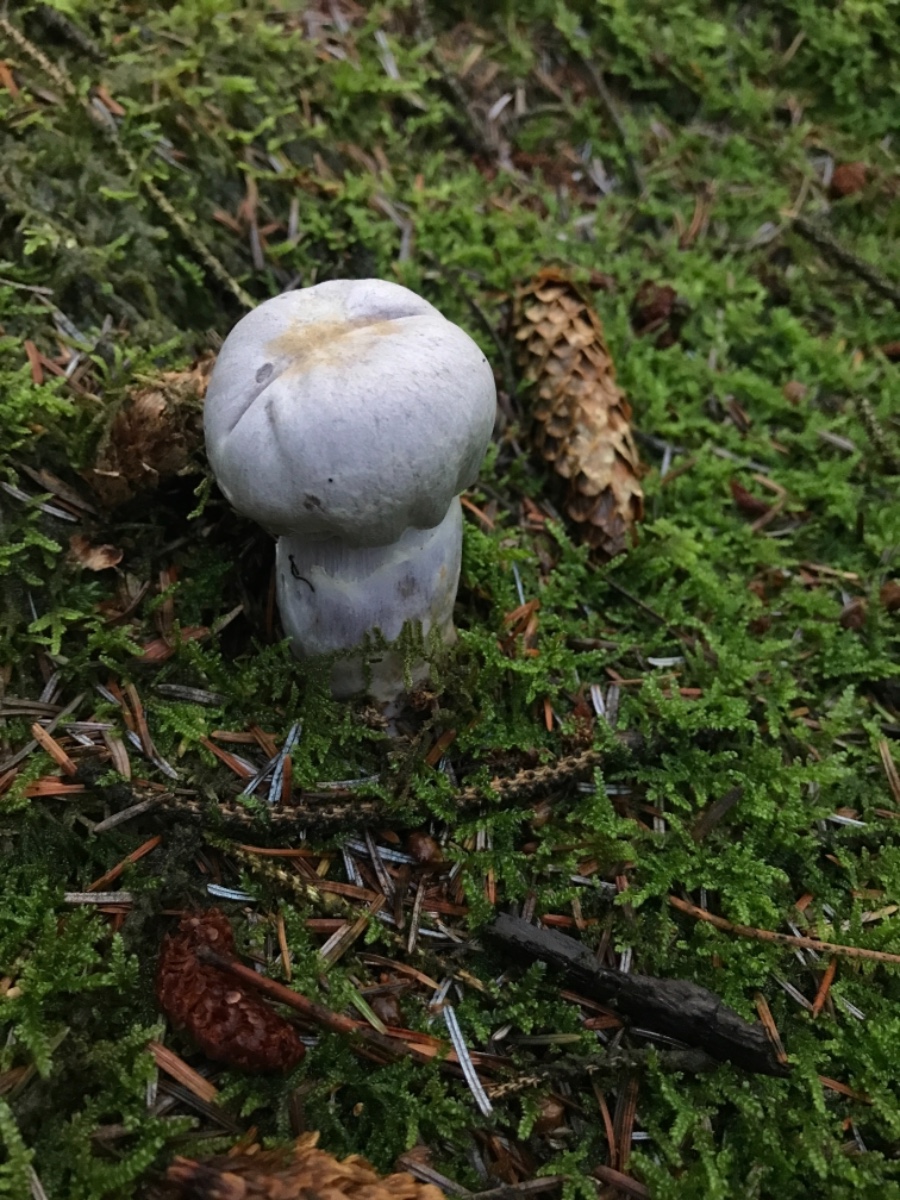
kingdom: Fungi
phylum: Basidiomycota
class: Agaricomycetes
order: Agaricales
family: Cortinariaceae
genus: Cortinarius
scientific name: Cortinarius camphoratus
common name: stinkende slørhat
